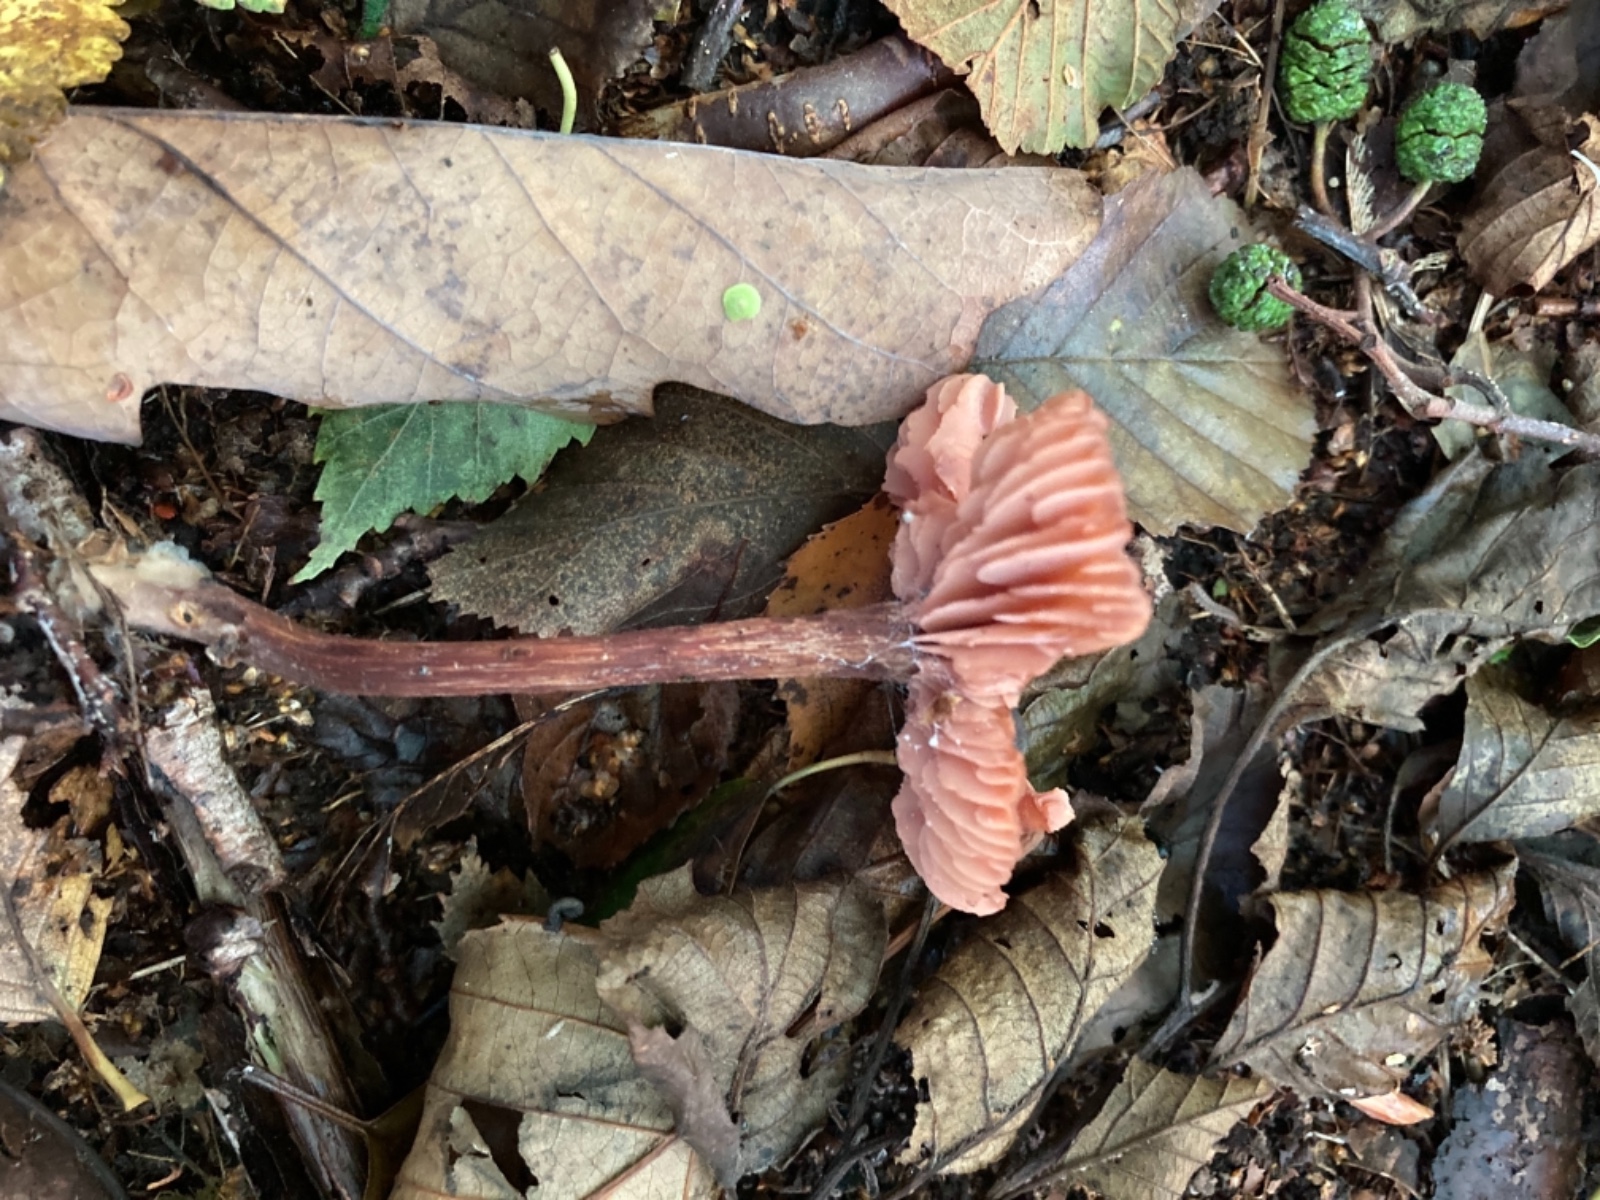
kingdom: Fungi
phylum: Basidiomycota
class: Agaricomycetes
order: Agaricales
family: Hydnangiaceae
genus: Laccaria
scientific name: Laccaria laccata
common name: rød ametysthat
